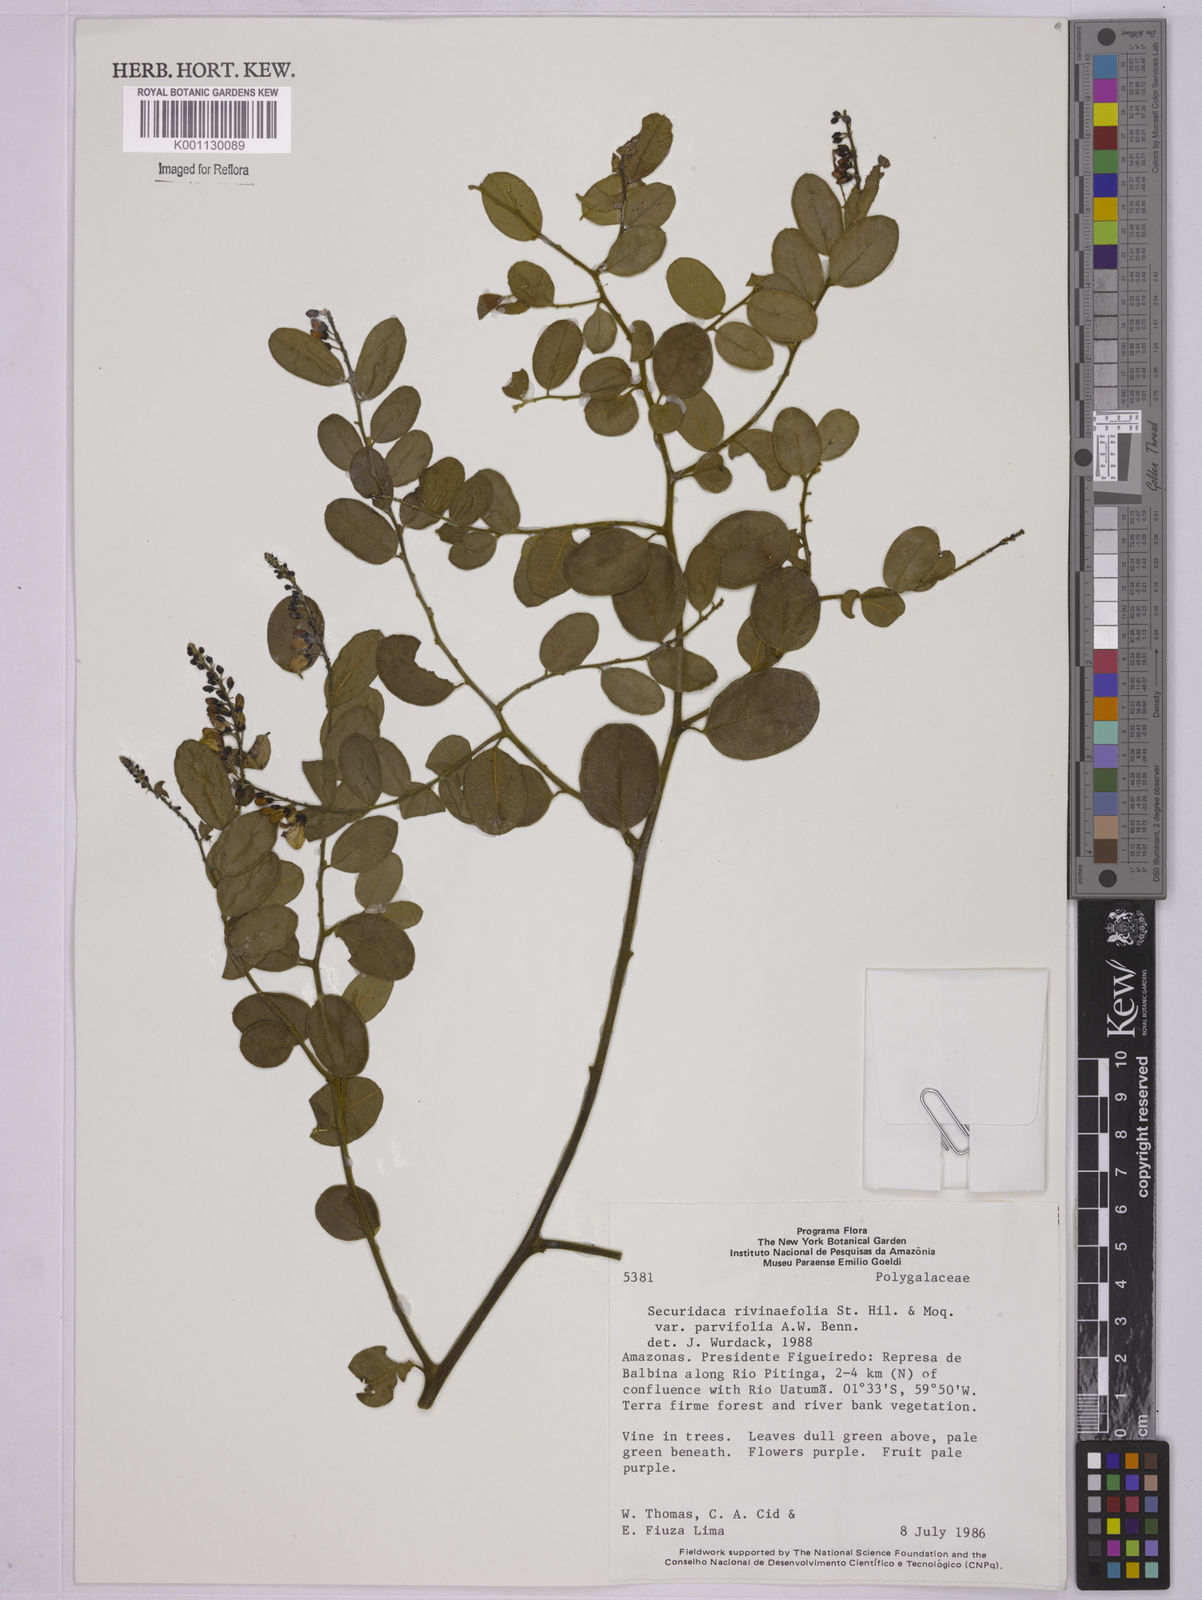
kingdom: Plantae
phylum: Tracheophyta
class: Magnoliopsida
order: Fabales
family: Polygalaceae
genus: Securidaca
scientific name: Securidaca rivinifolia
